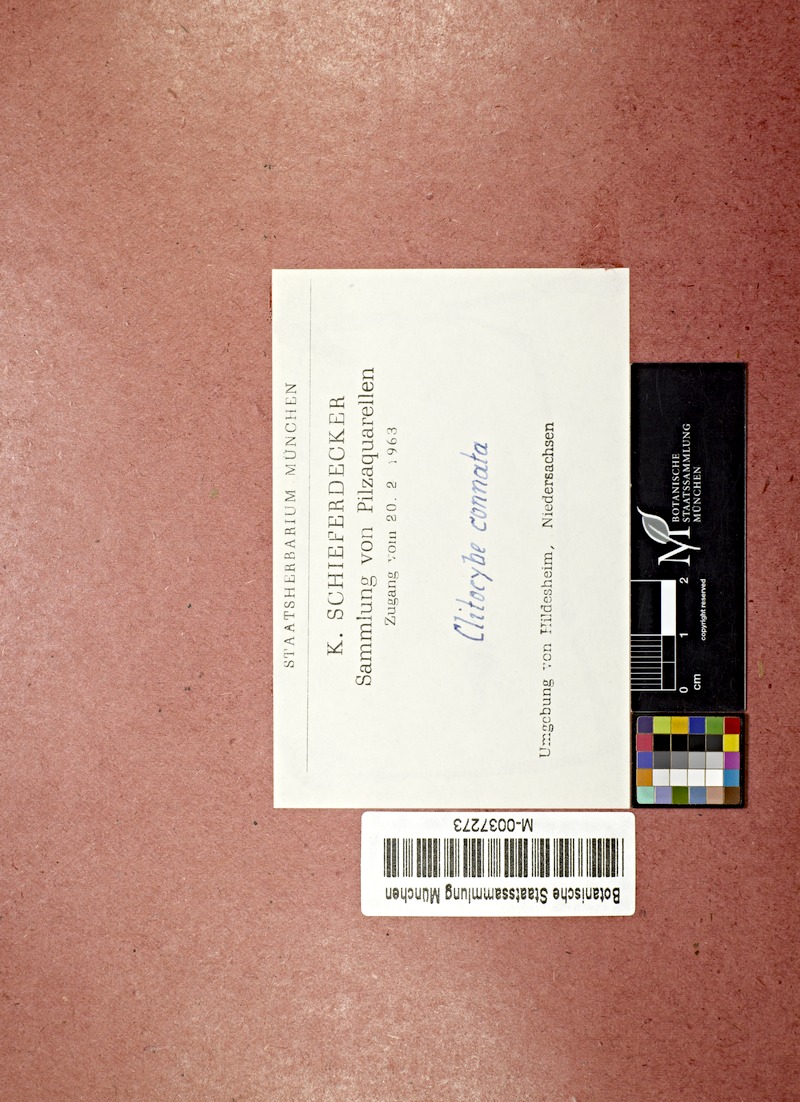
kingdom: Fungi
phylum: Basidiomycota
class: Agaricomycetes
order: Agaricales
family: Tricholomataceae
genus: Leucocybe
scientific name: Leucocybe connata
